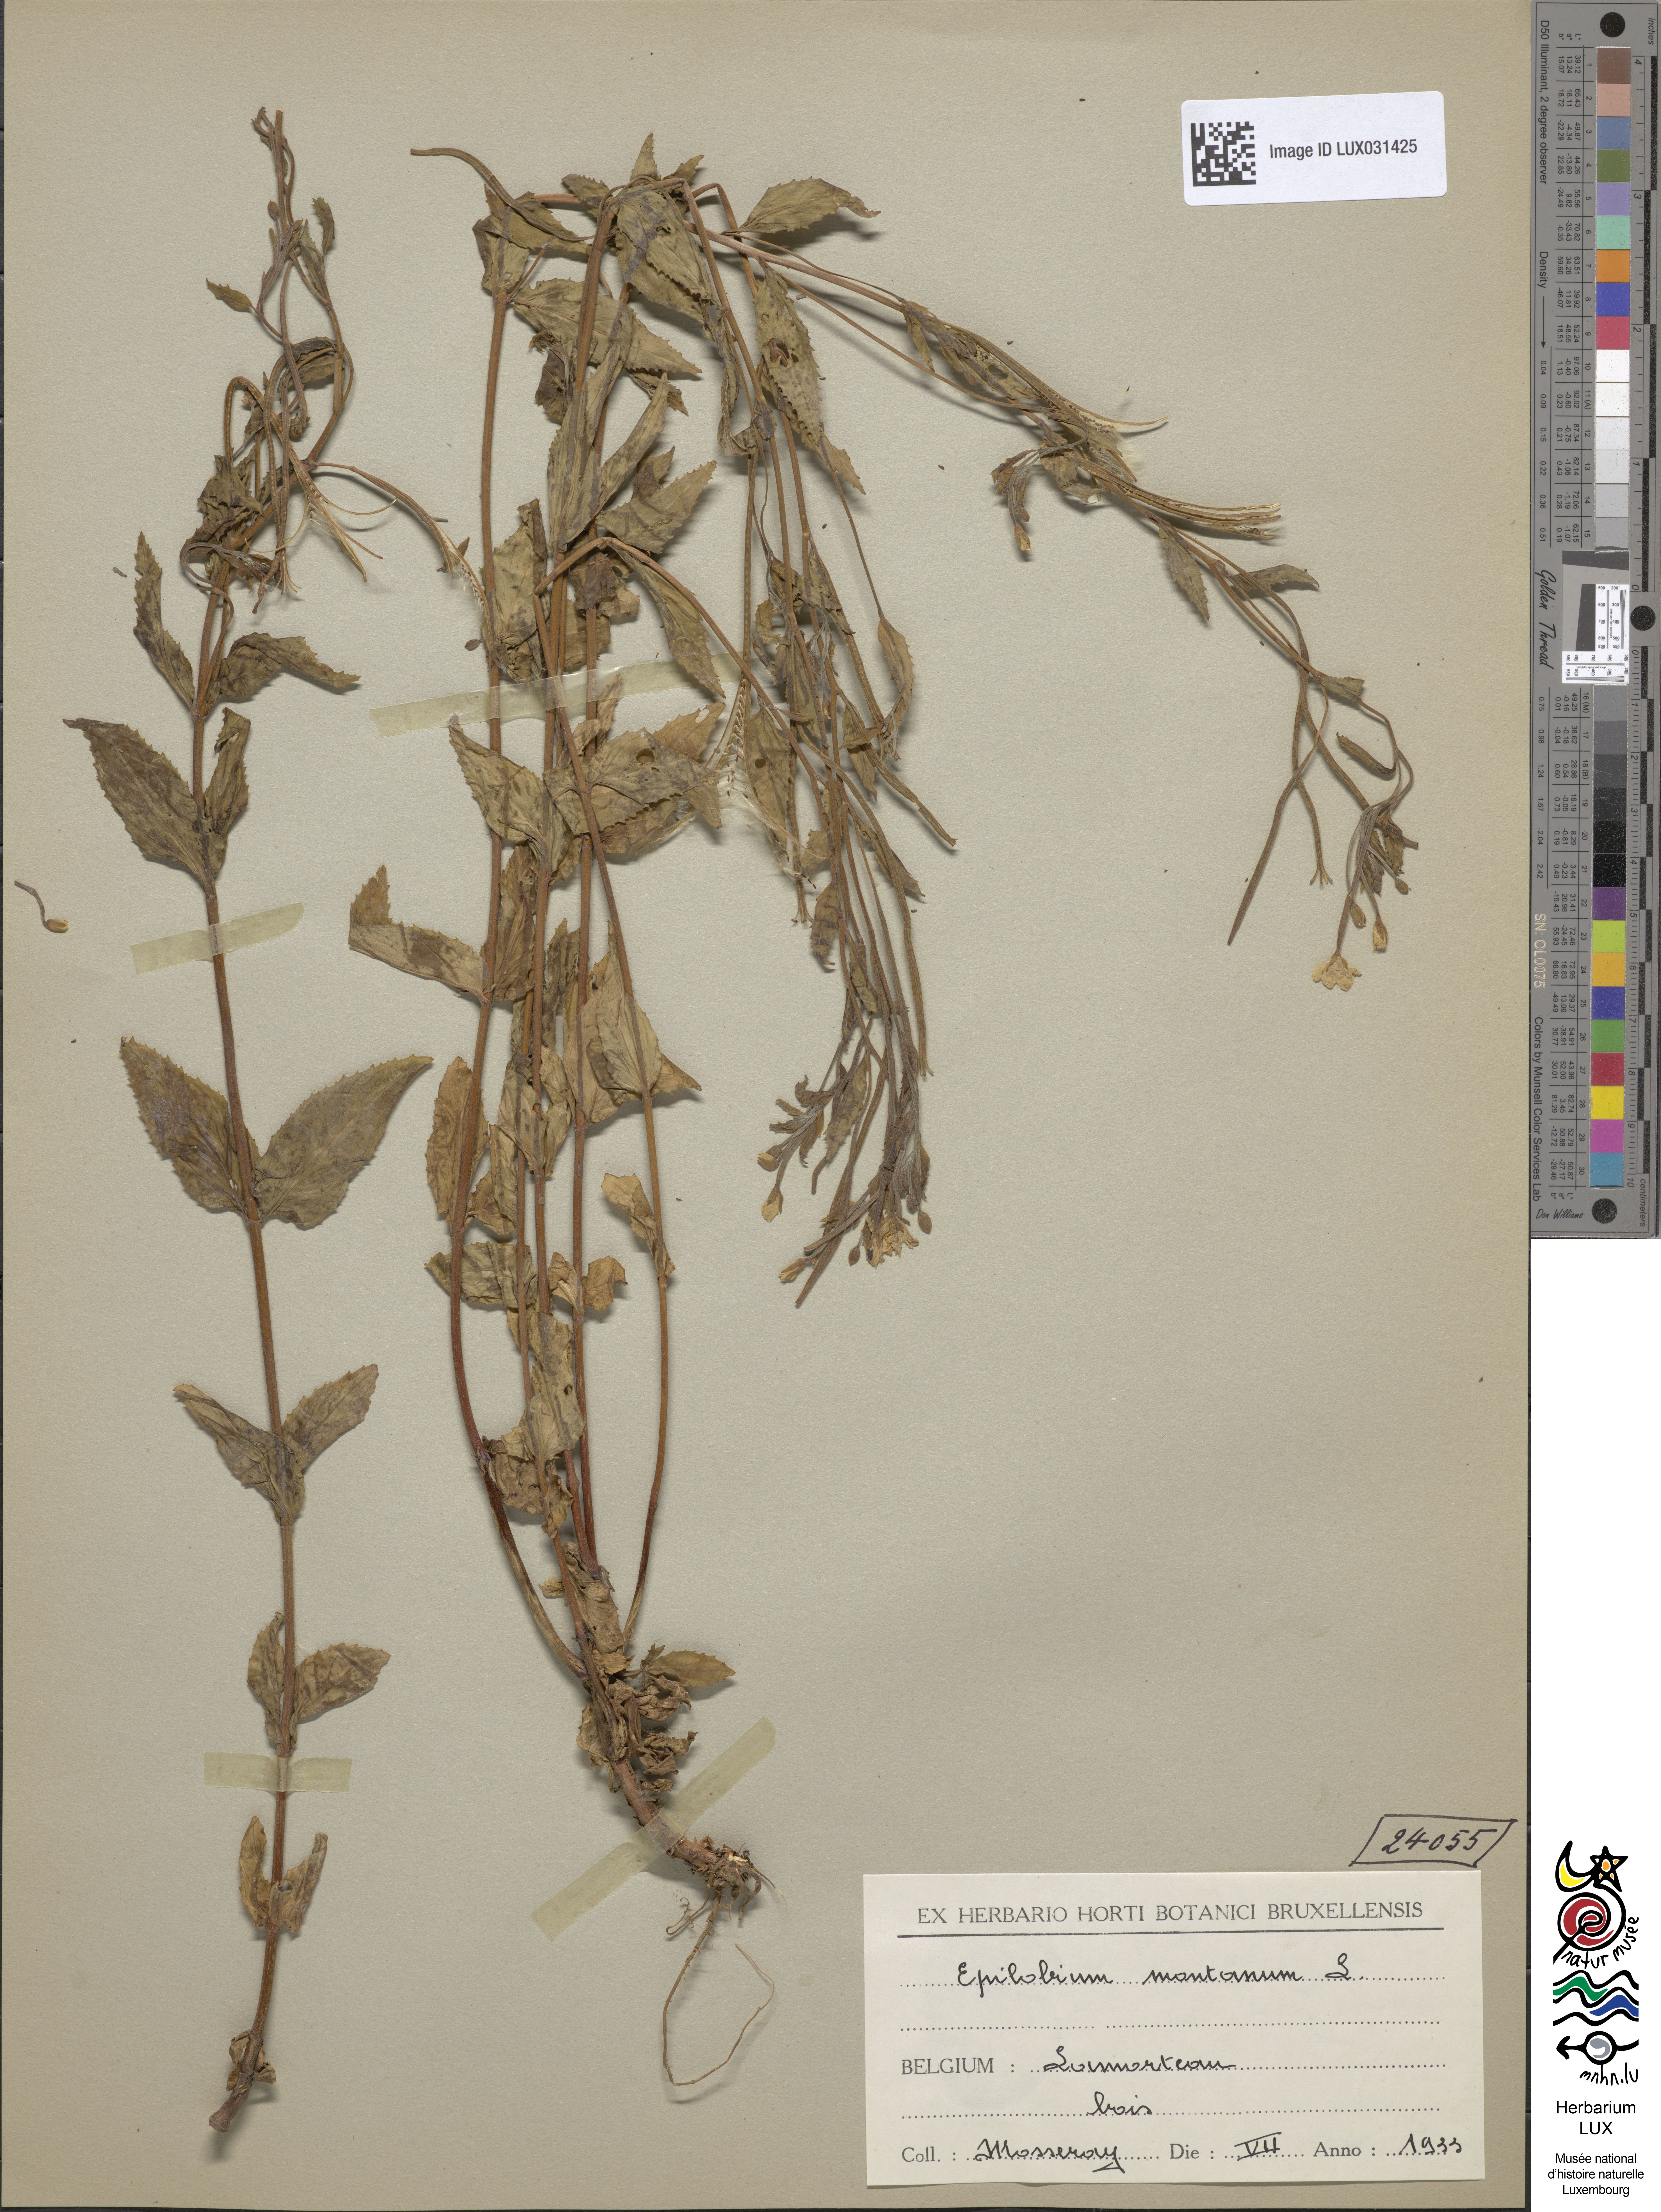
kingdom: Plantae
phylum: Tracheophyta
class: Magnoliopsida
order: Myrtales
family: Onagraceae
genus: Epilobium
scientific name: Epilobium montanum
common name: Broad-leaved willowherb
